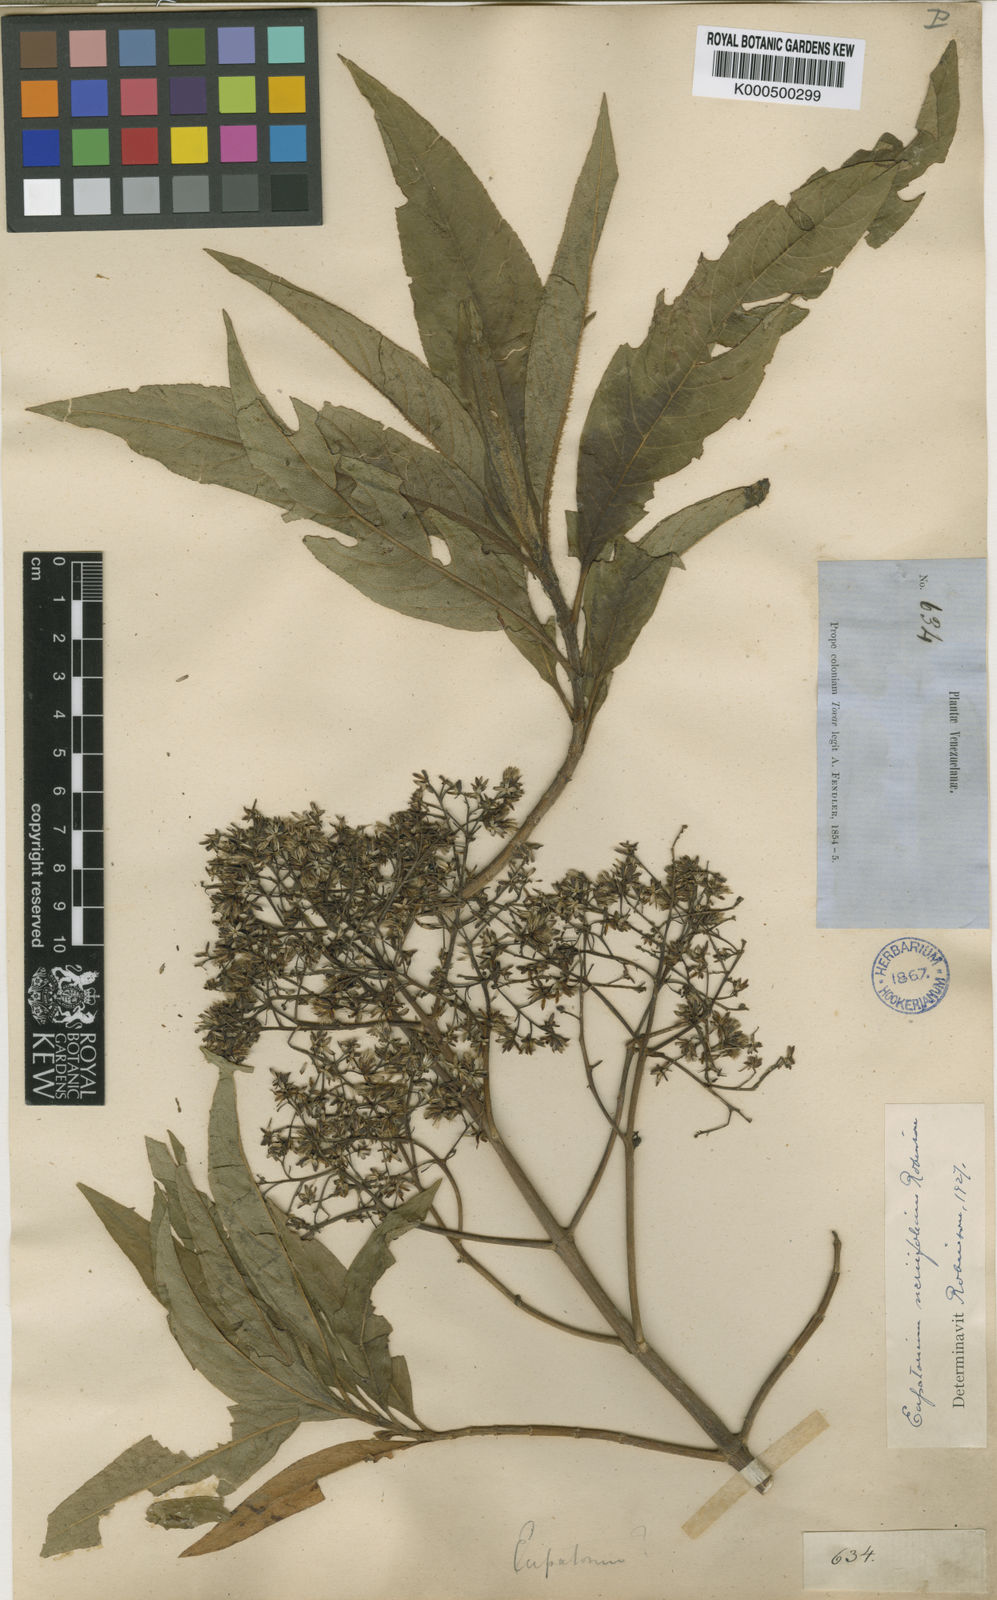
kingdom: Plantae
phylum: Tracheophyta
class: Magnoliopsida
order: Asterales
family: Asteraceae
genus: Ageratina
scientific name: Ageratina neriifolia
